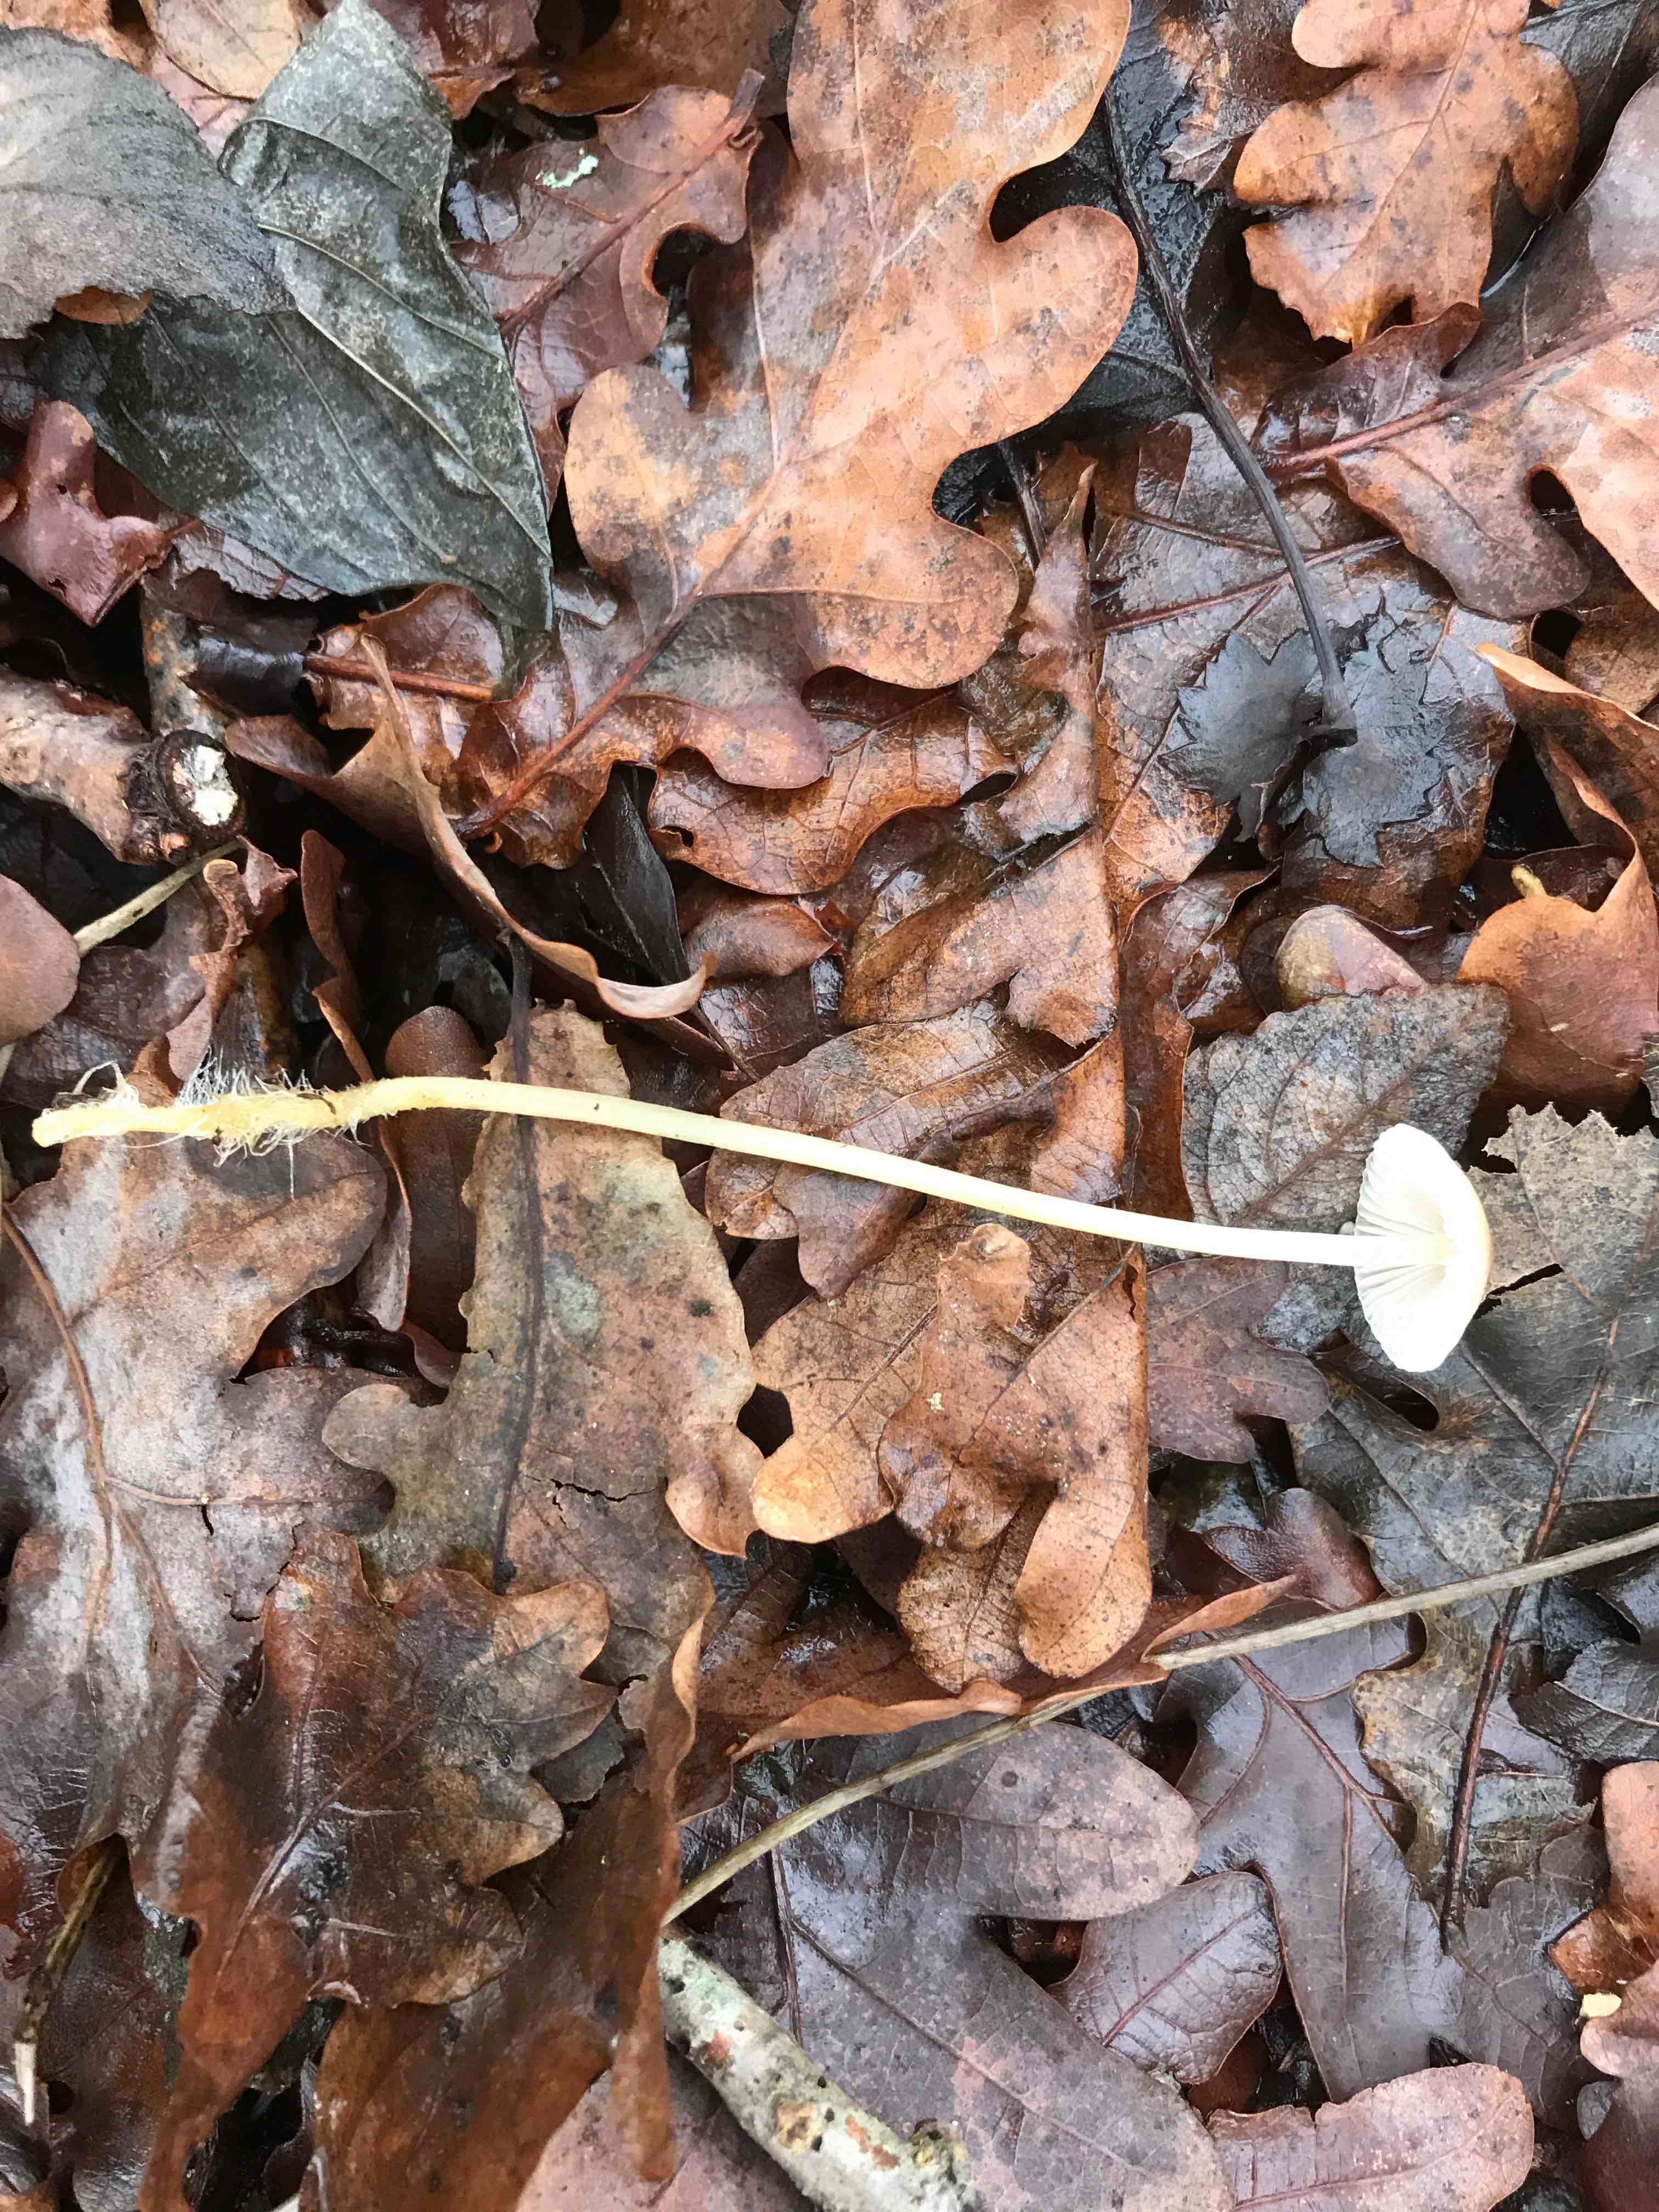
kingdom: Fungi
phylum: Basidiomycota
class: Agaricomycetes
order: Agaricales
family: Mycenaceae
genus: Mycena
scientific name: Mycena epipterygia
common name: gulstokket huesvamp
